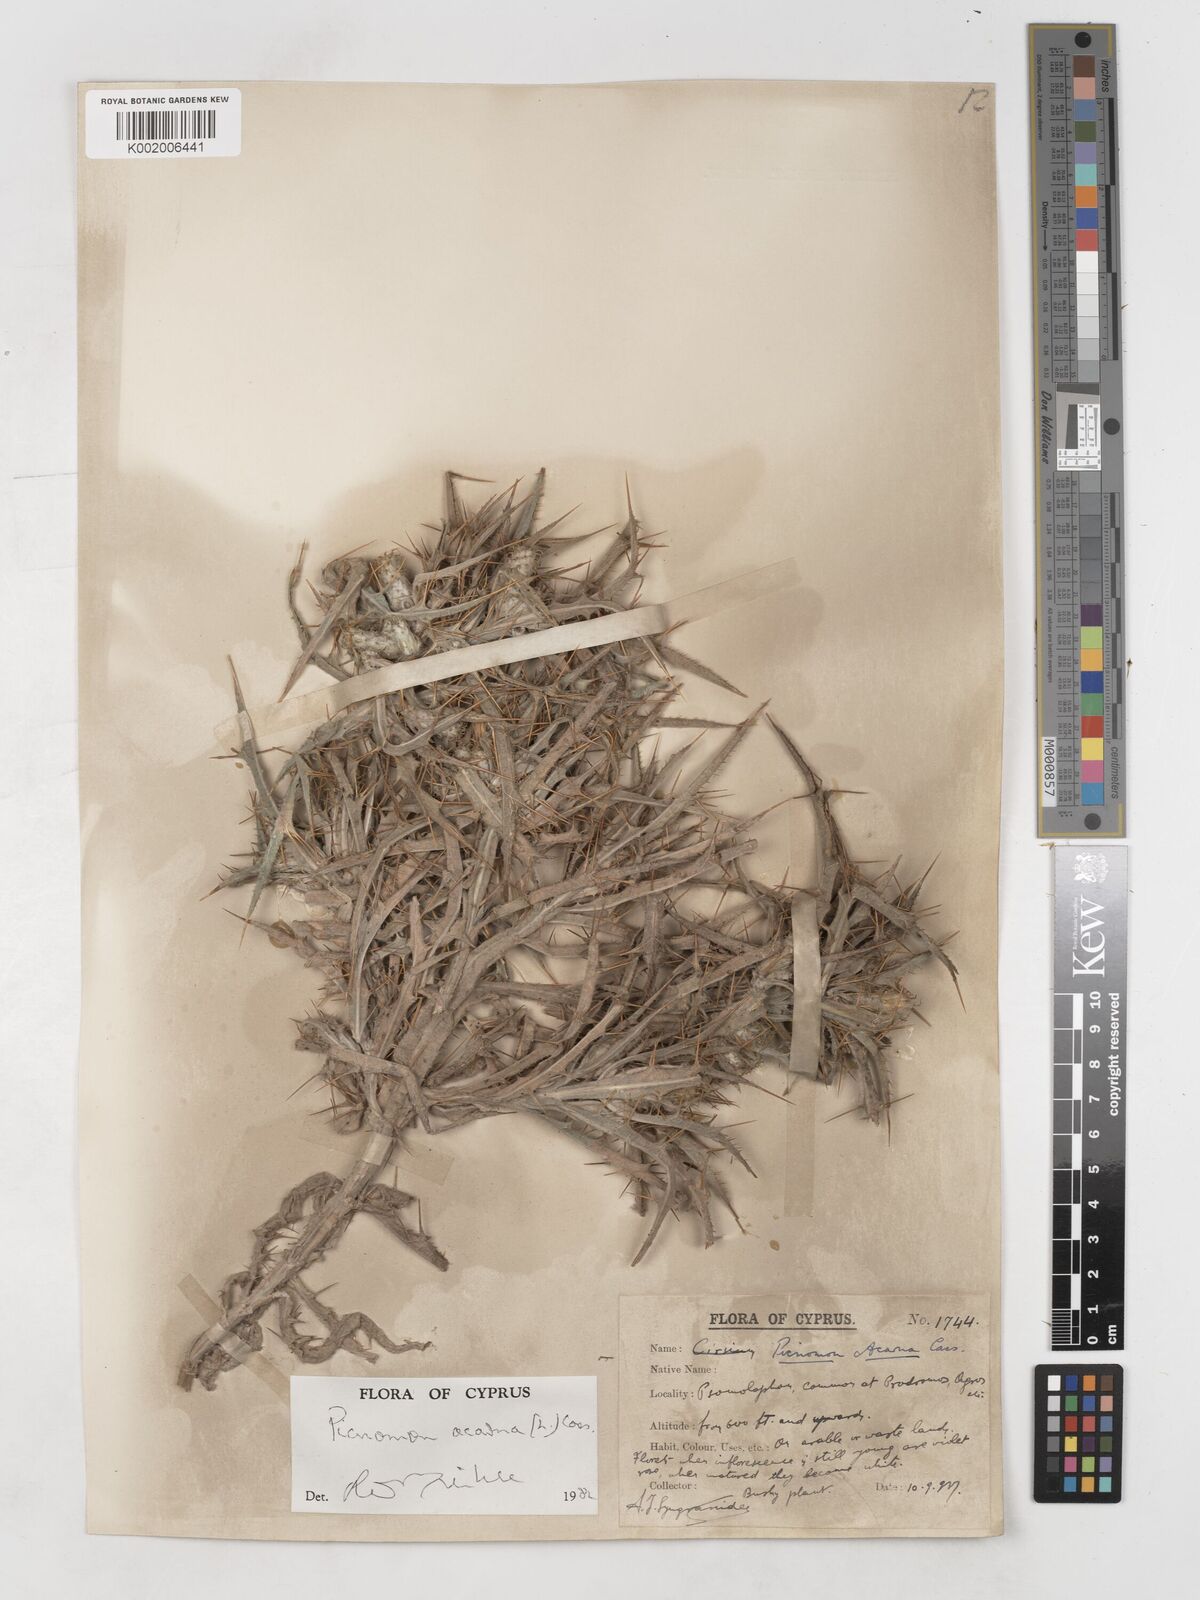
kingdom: Plantae
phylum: Tracheophyta
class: Magnoliopsida
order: Asterales
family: Asteraceae
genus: Picnomon
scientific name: Picnomon acarna
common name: Soldier thistle
